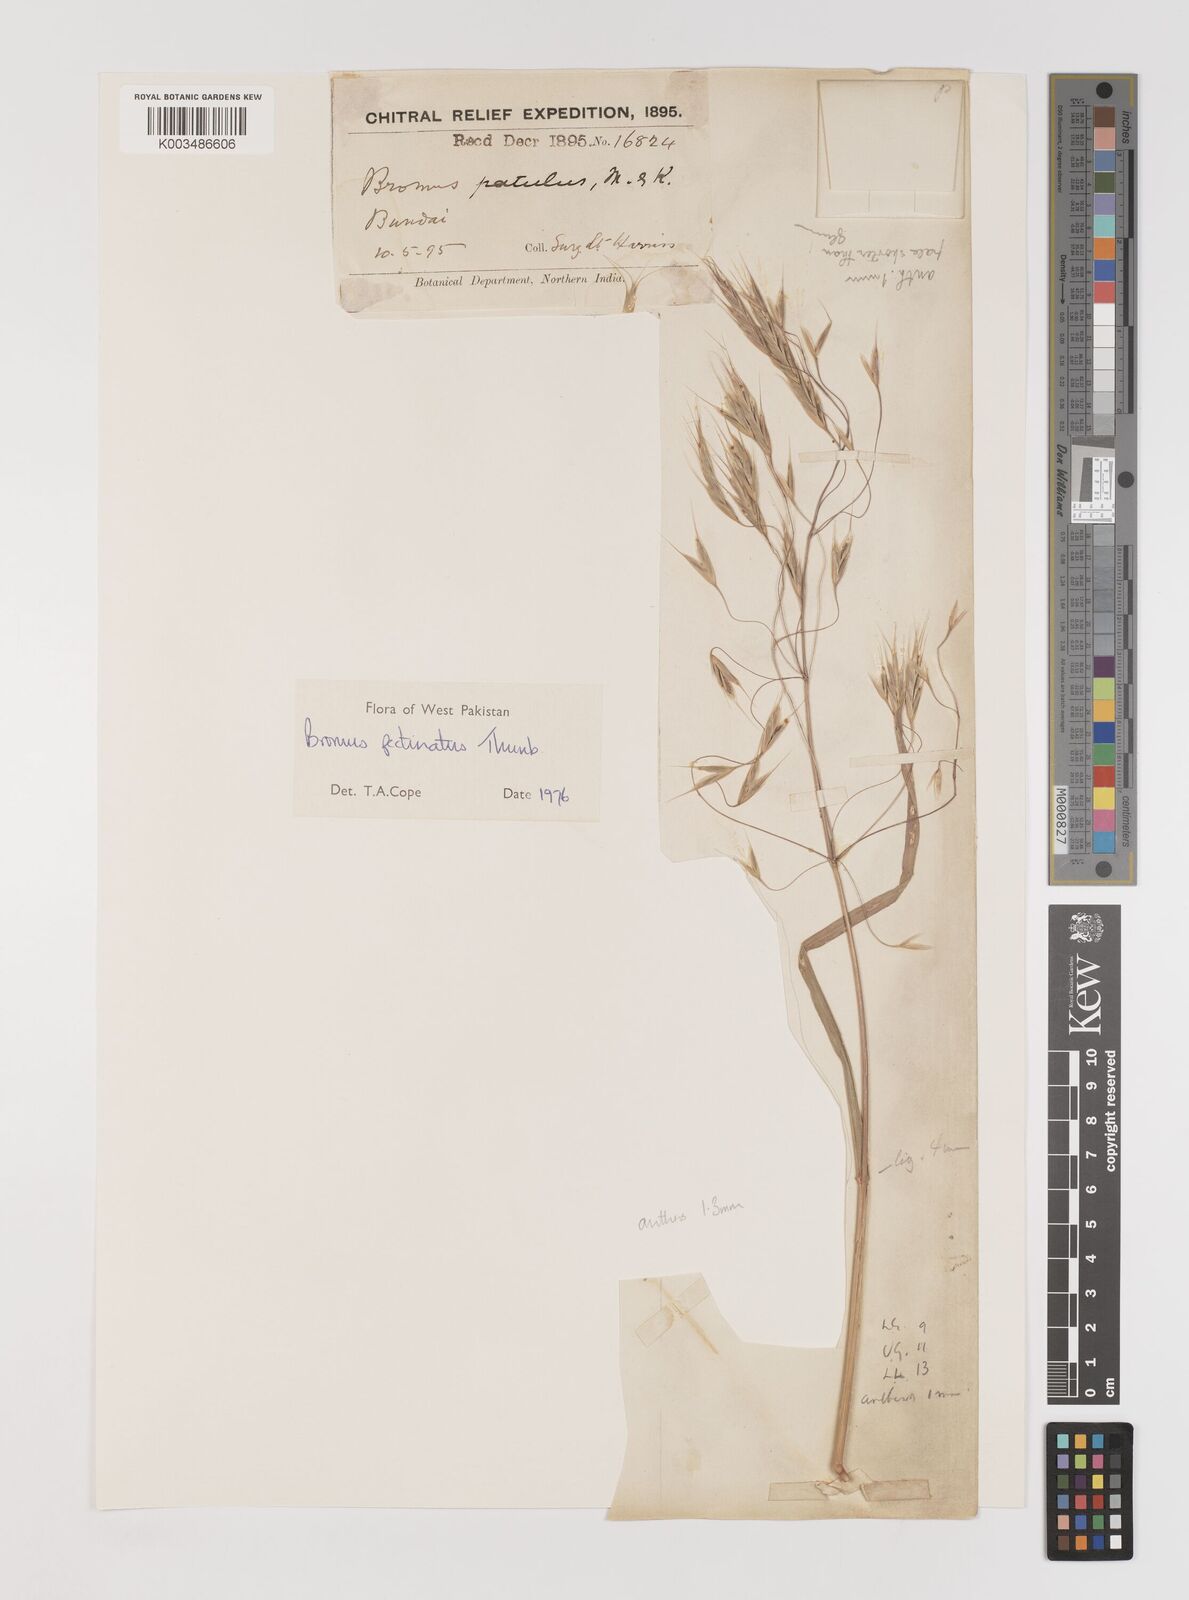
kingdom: Plantae
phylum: Tracheophyta
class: Liliopsida
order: Poales
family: Poaceae
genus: Bromus
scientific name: Bromus pectinatus
